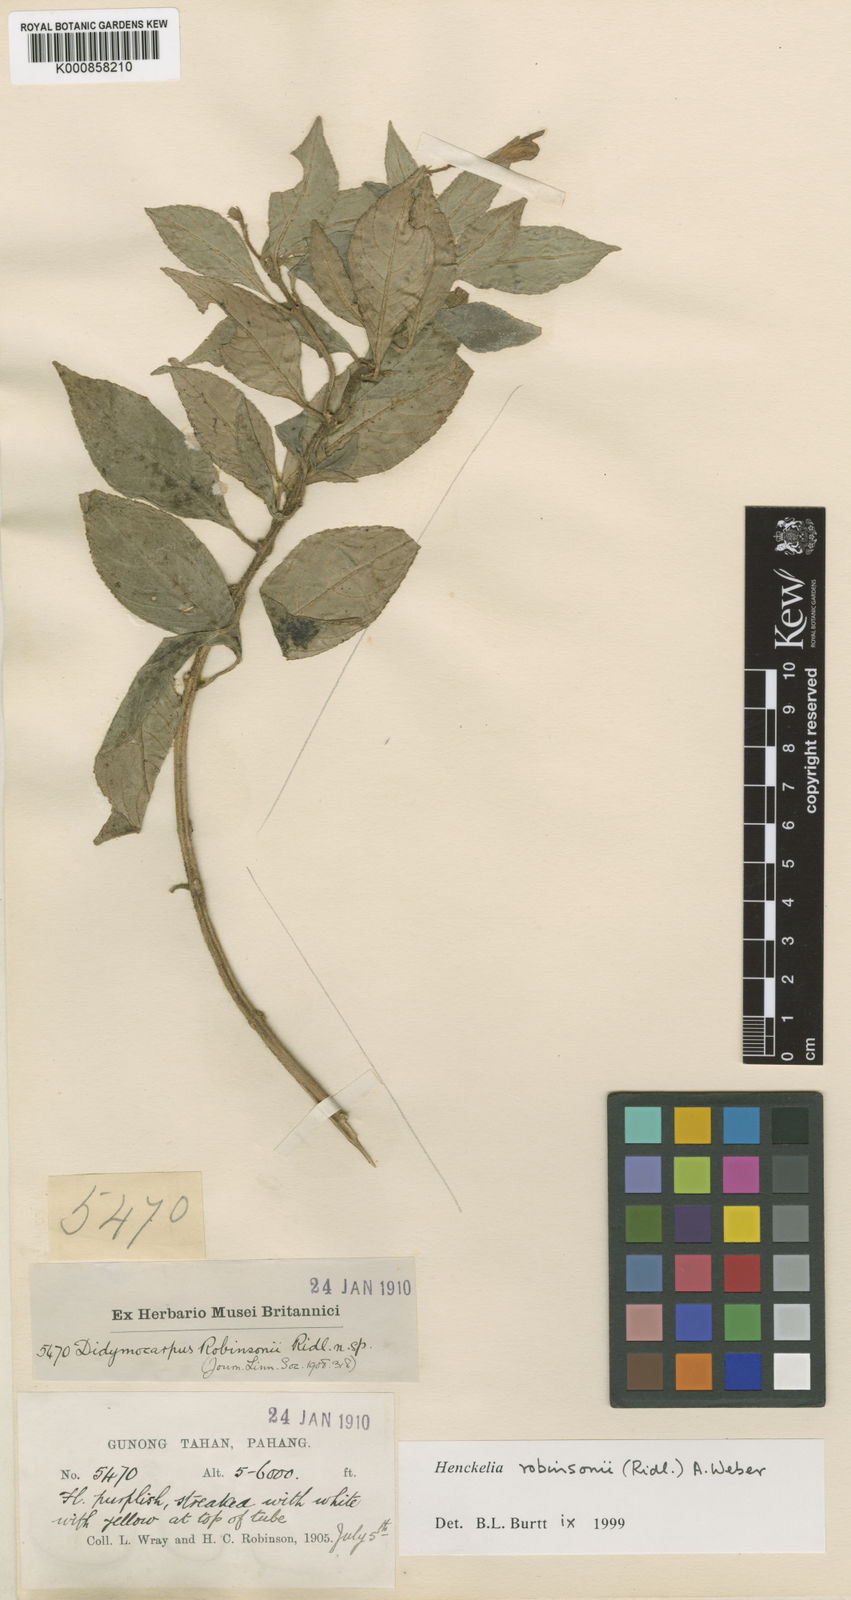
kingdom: Plantae
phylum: Tracheophyta
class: Magnoliopsida
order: Lamiales
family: Gesneriaceae
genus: Codonoboea
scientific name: Codonoboea robinsonii
